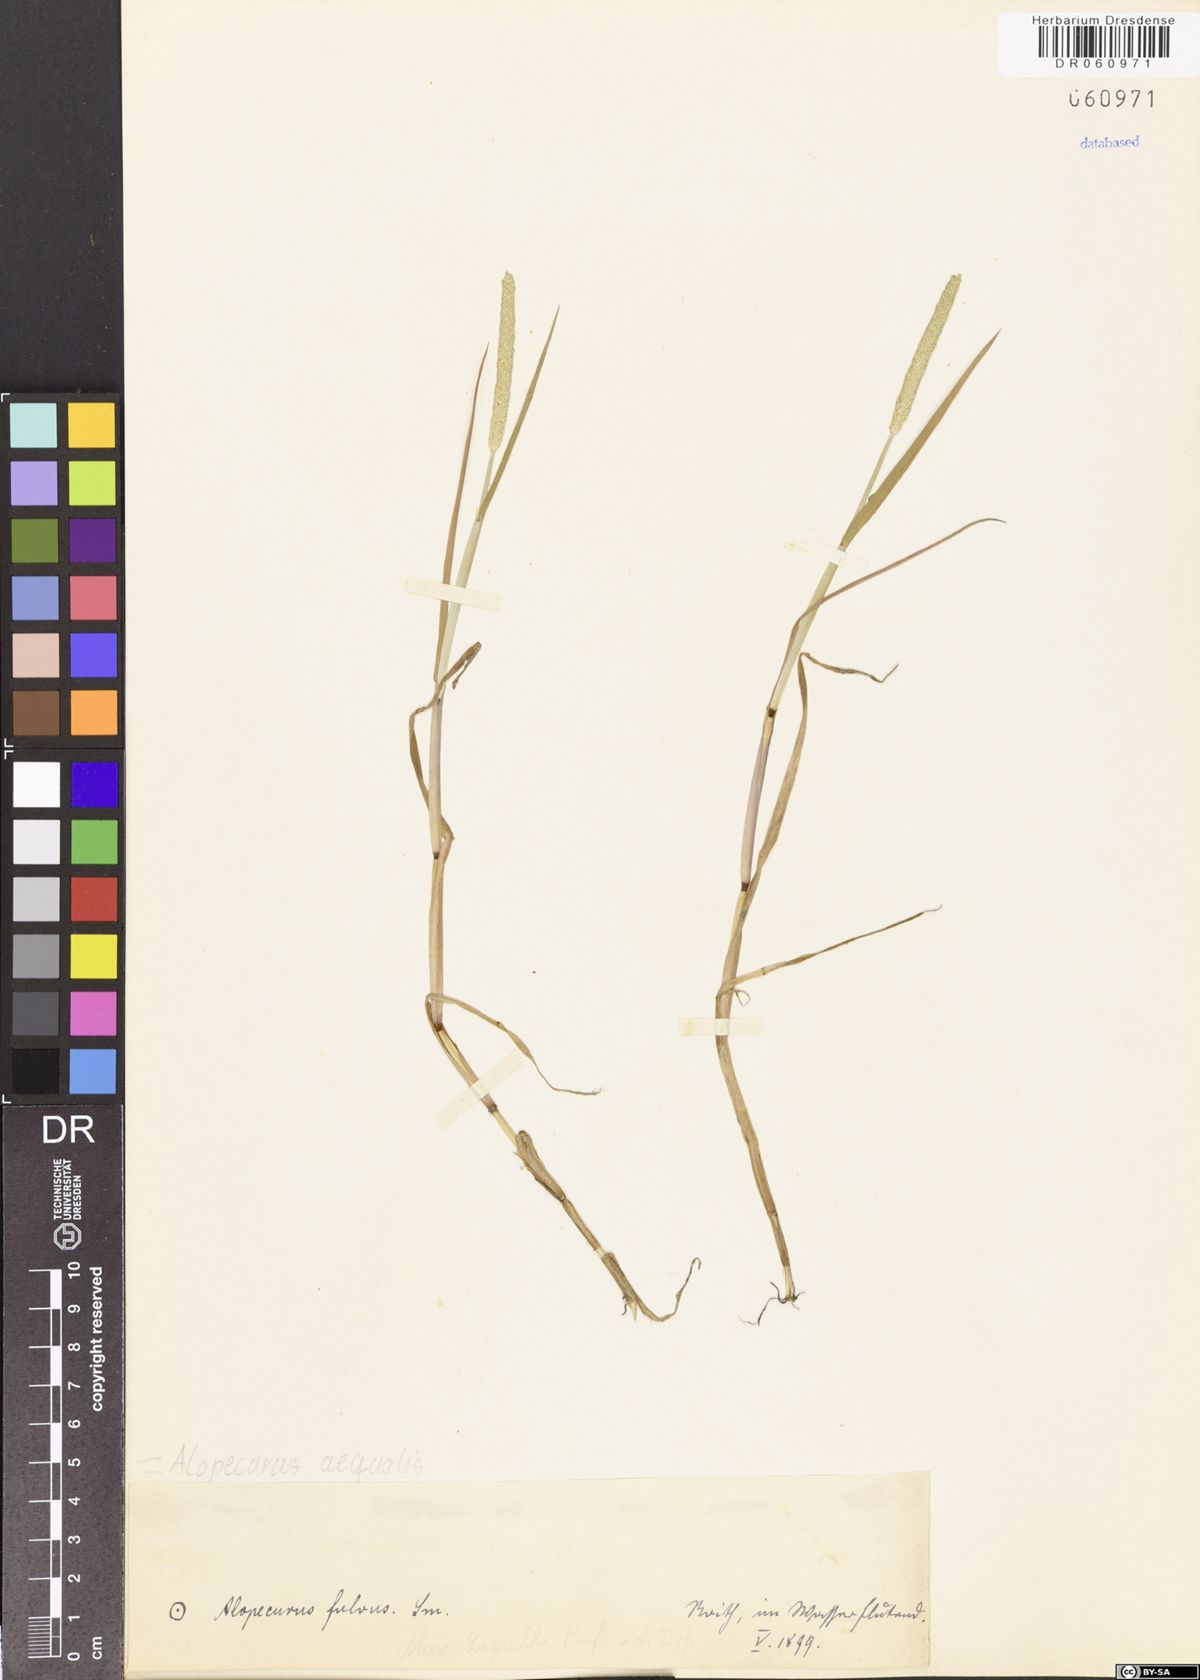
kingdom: Plantae
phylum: Tracheophyta
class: Liliopsida
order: Poales
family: Poaceae
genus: Alopecurus
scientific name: Alopecurus aequalis
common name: Orange foxtail
